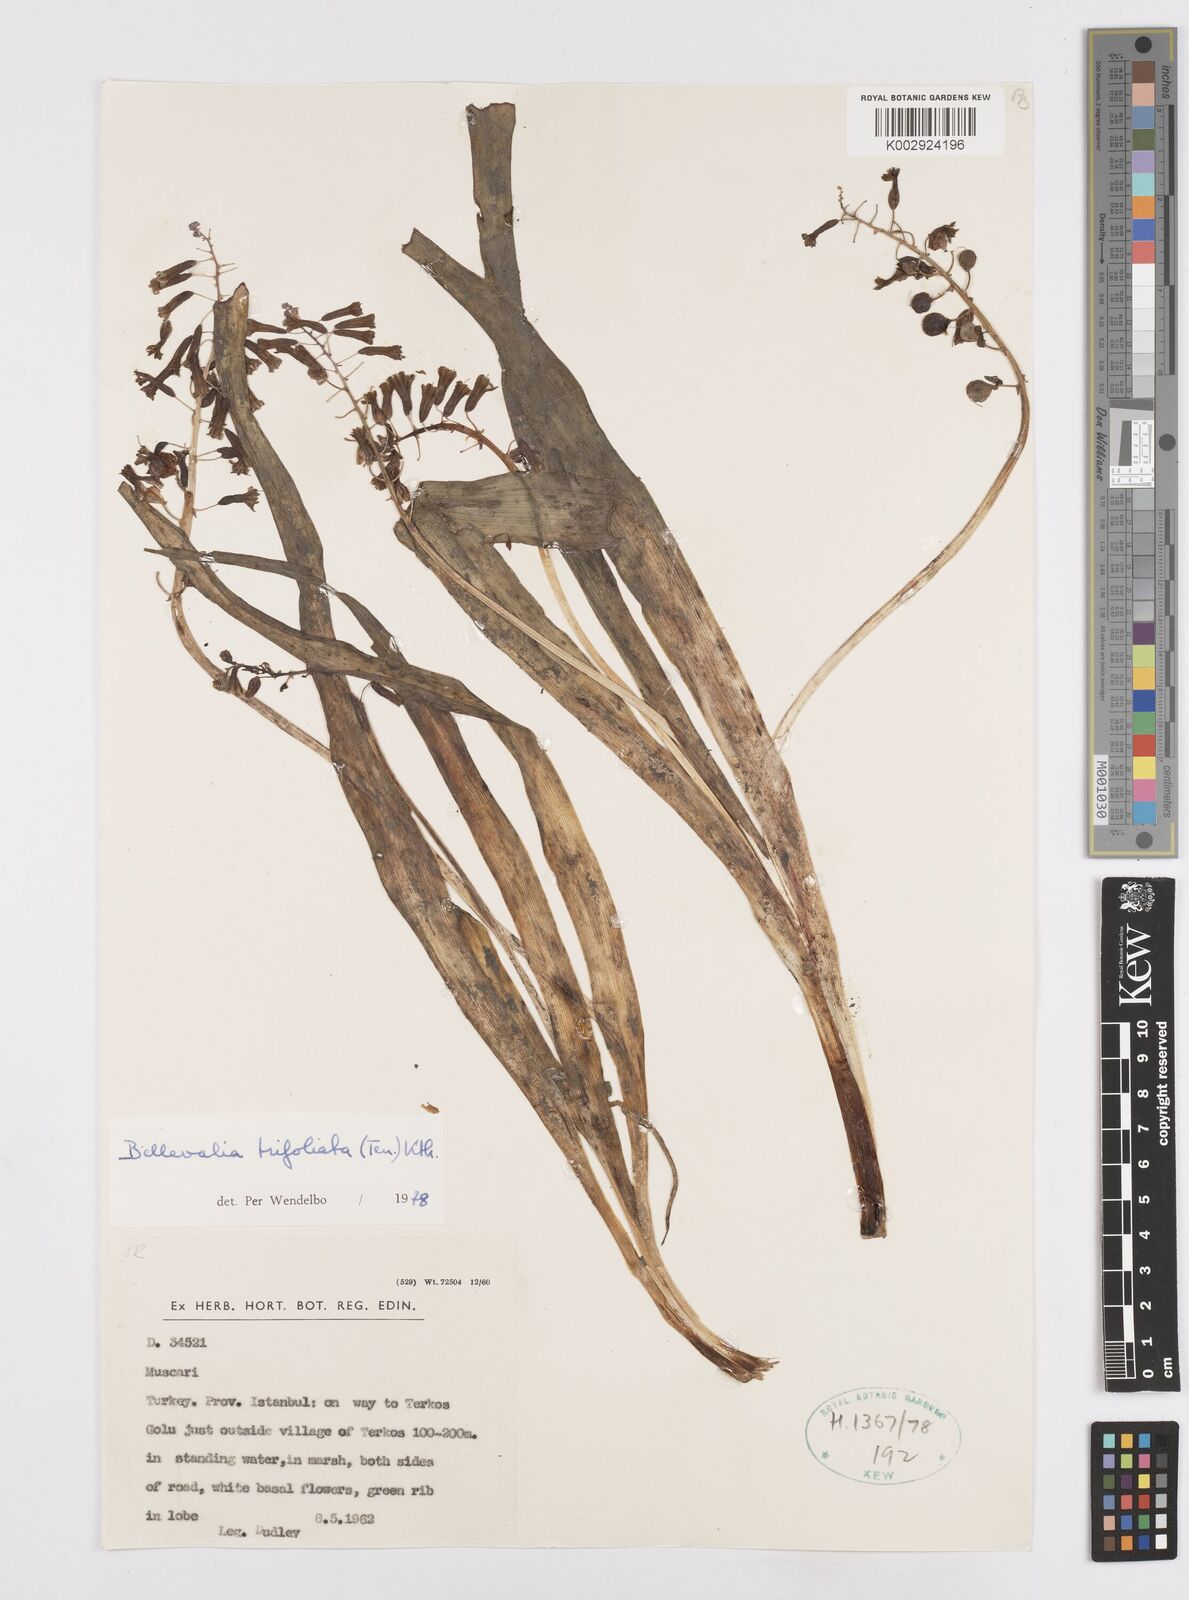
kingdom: Plantae
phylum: Tracheophyta
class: Liliopsida
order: Asparagales
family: Asparagaceae
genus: Bellevalia
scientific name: Bellevalia trifoliata
